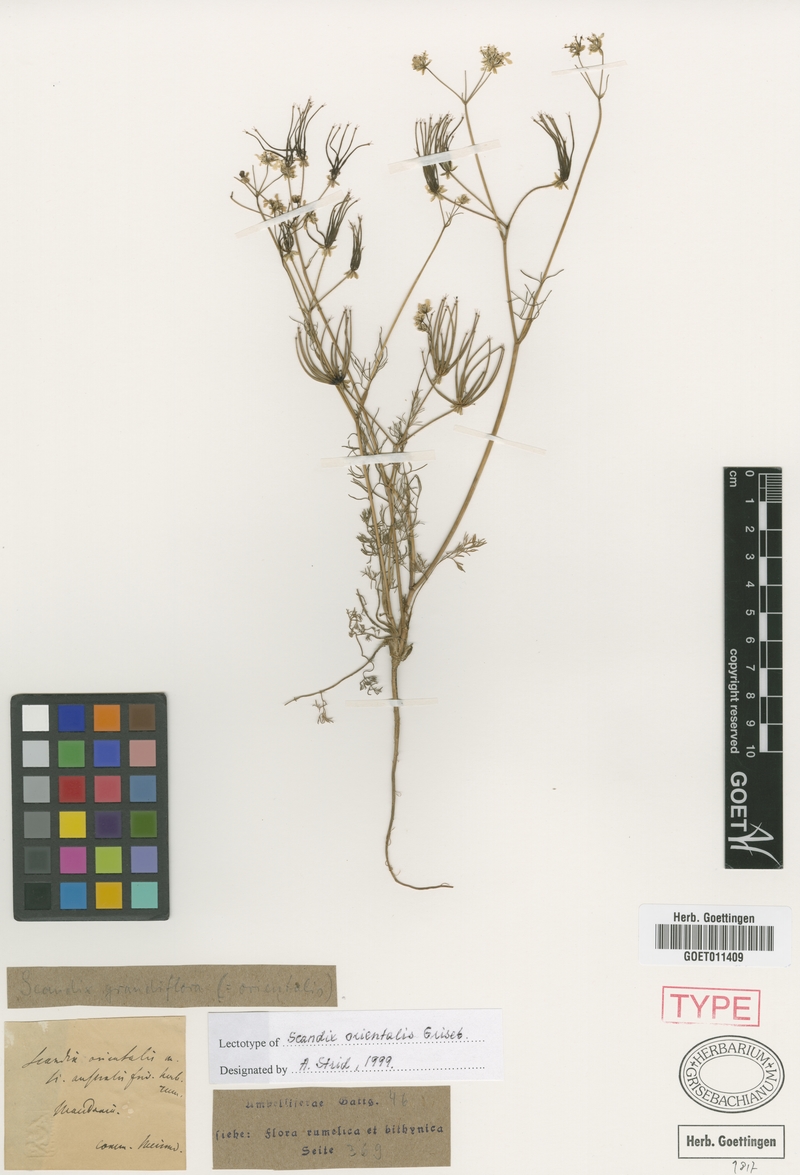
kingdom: Plantae
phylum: Tracheophyta
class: Magnoliopsida
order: Apiales
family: Apiaceae
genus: Scandix
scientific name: Scandix australis
